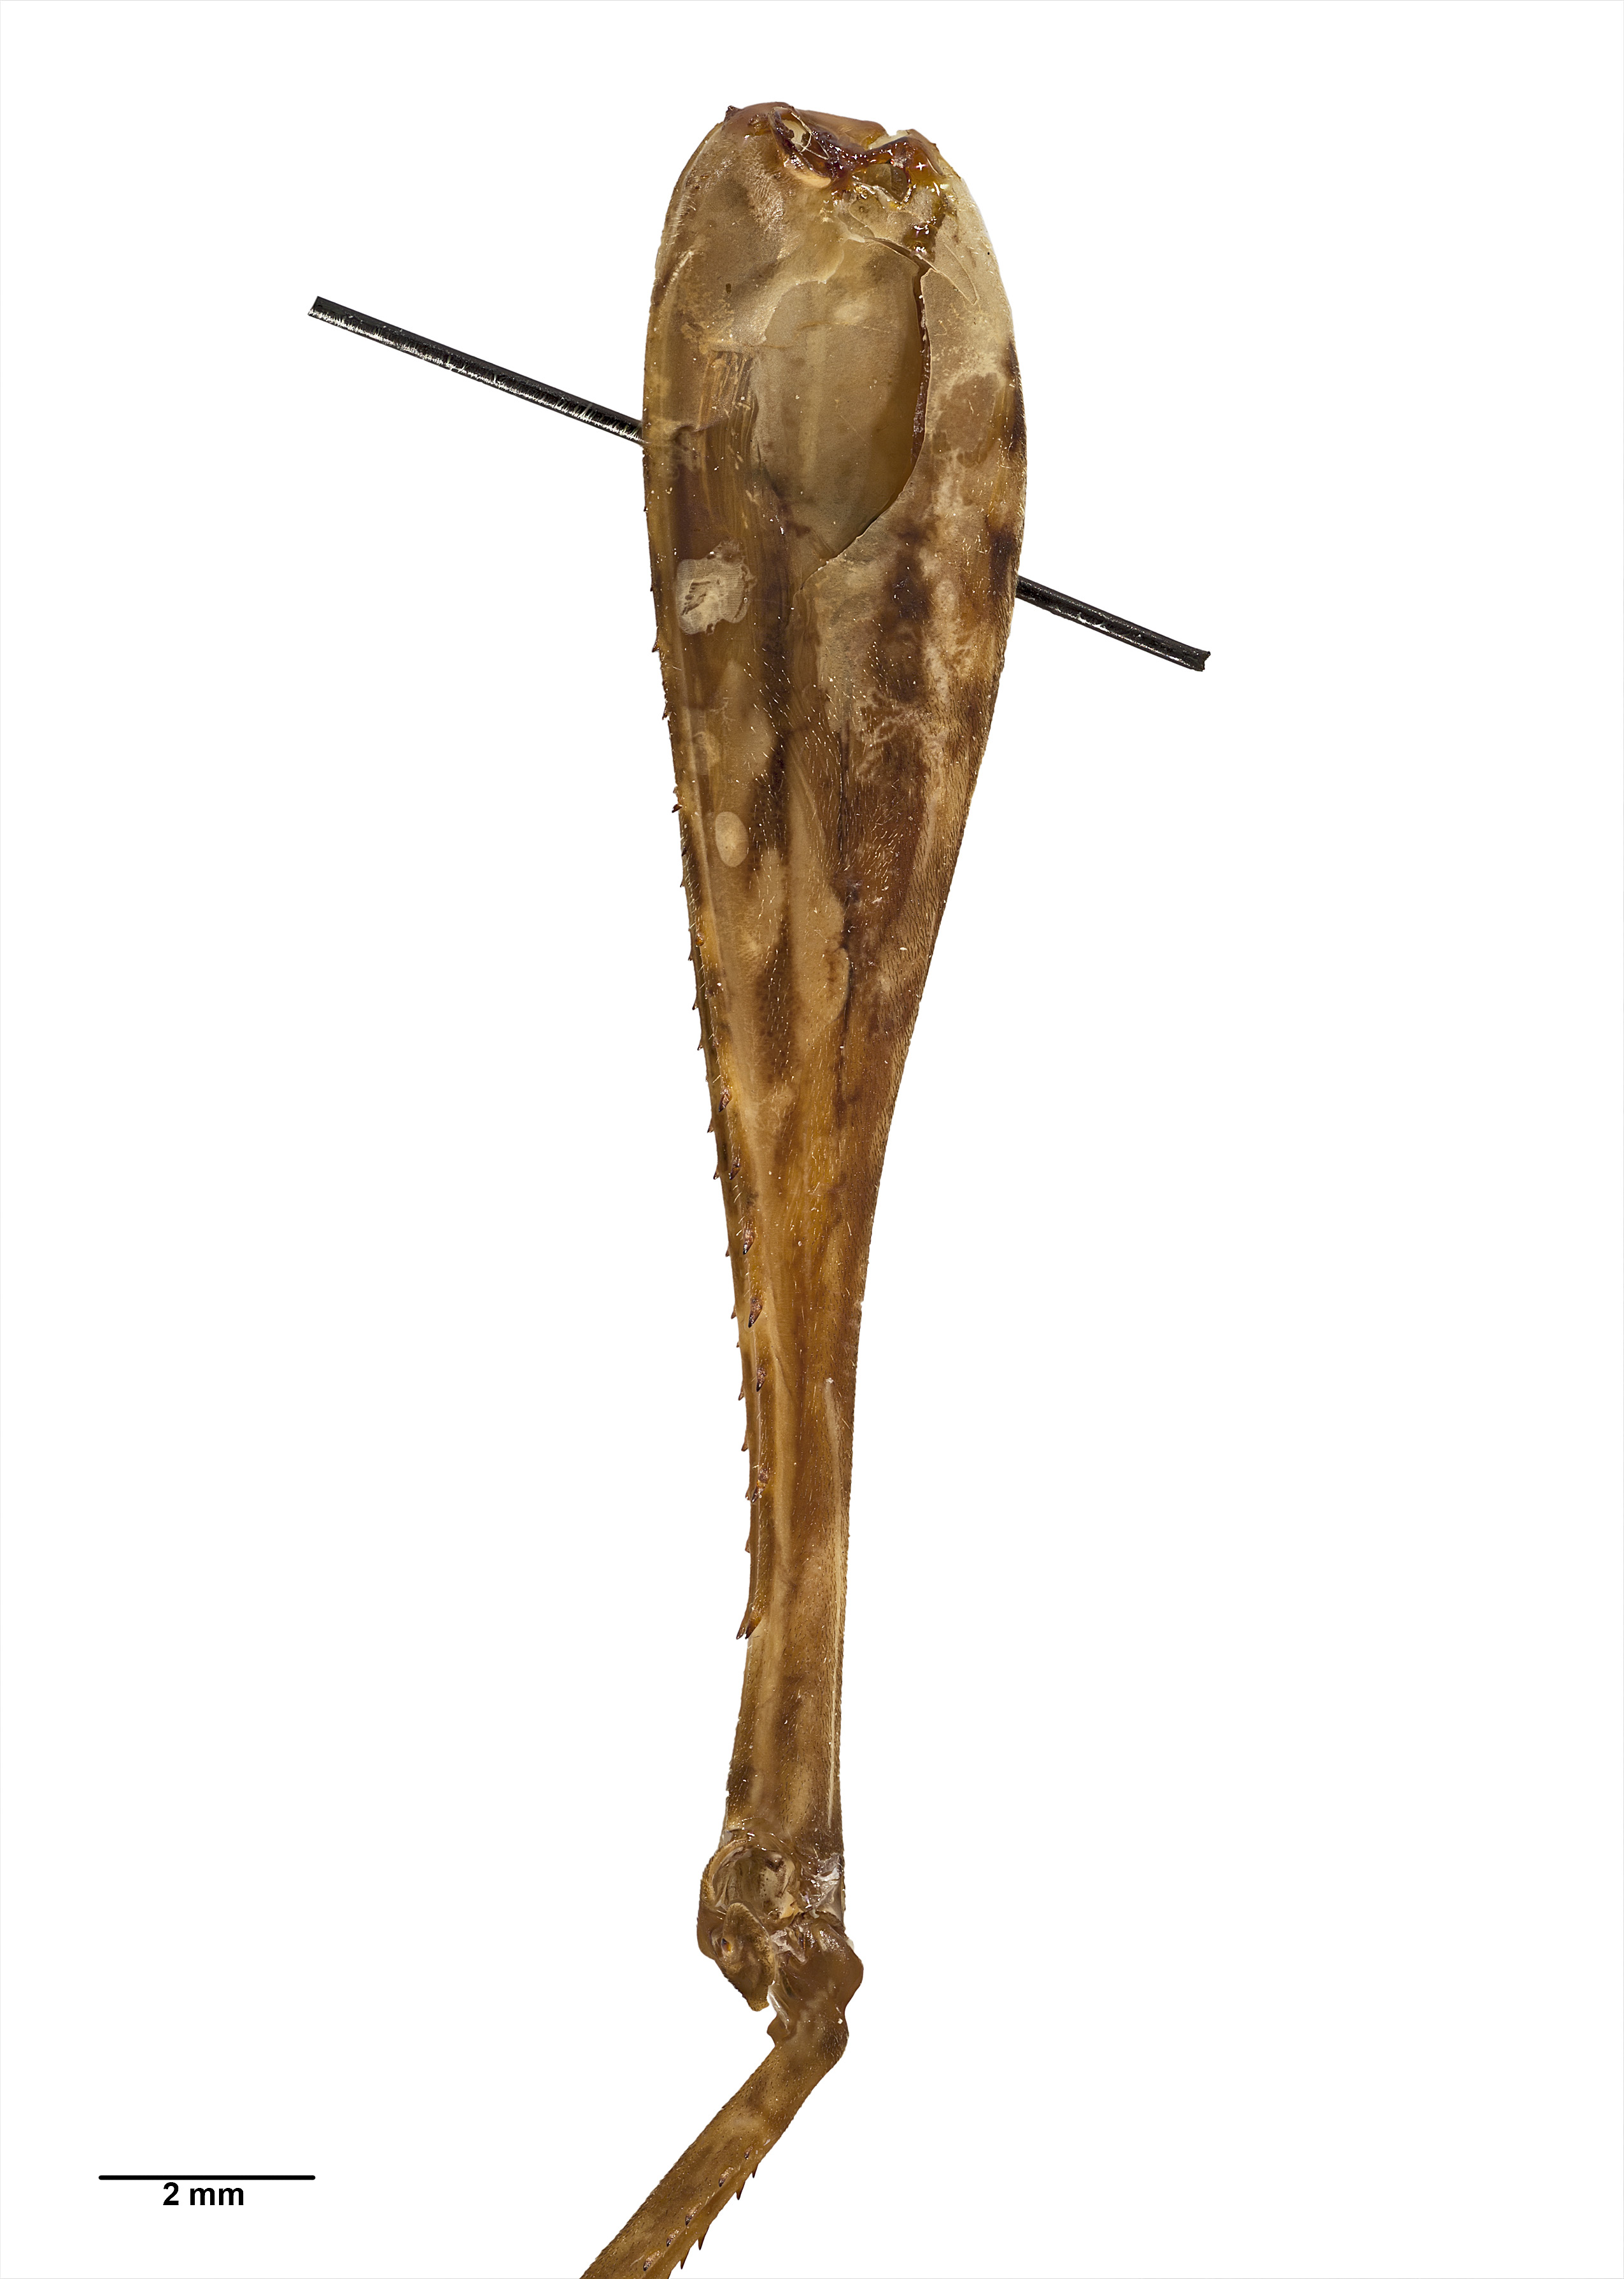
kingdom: Animalia
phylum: Arthropoda
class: Insecta
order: Orthoptera
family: Rhaphidophoridae
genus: Paraneonetus
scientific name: Paraneonetus multispinus
